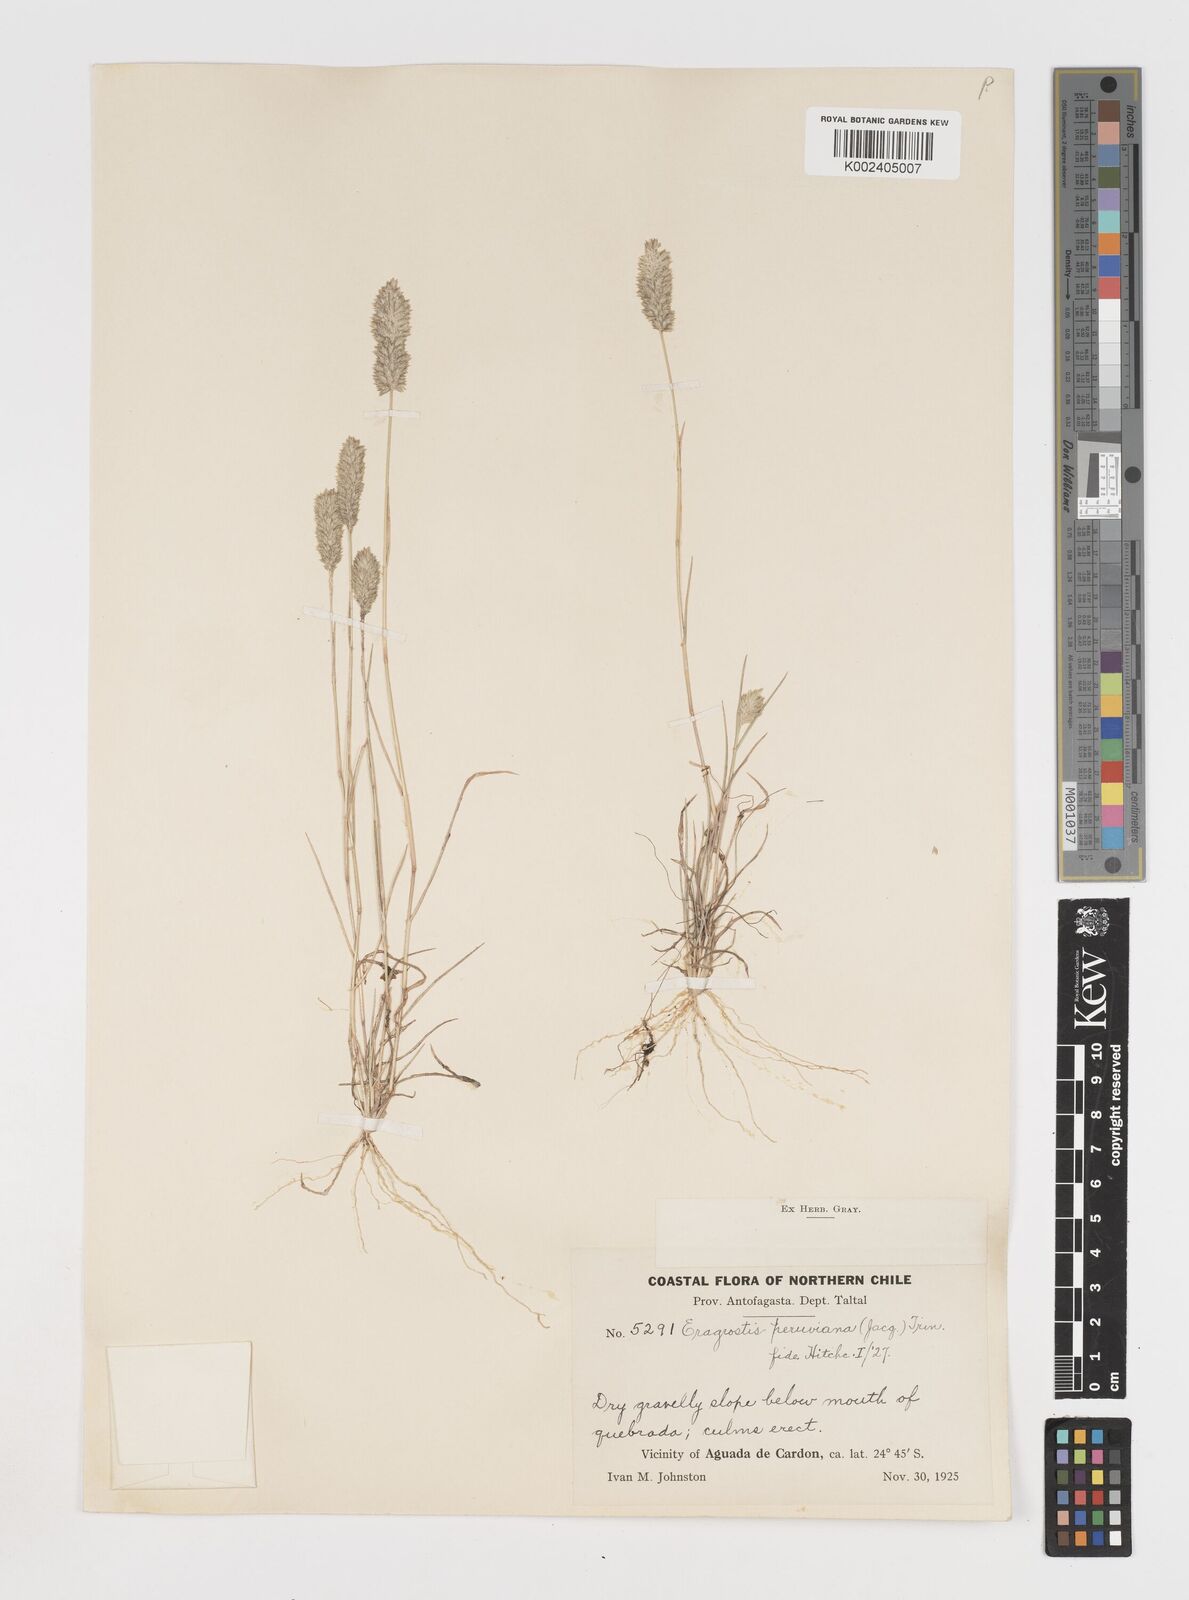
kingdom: Plantae
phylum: Tracheophyta
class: Liliopsida
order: Poales
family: Poaceae
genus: Eragrostis
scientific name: Eragrostis peruviana
